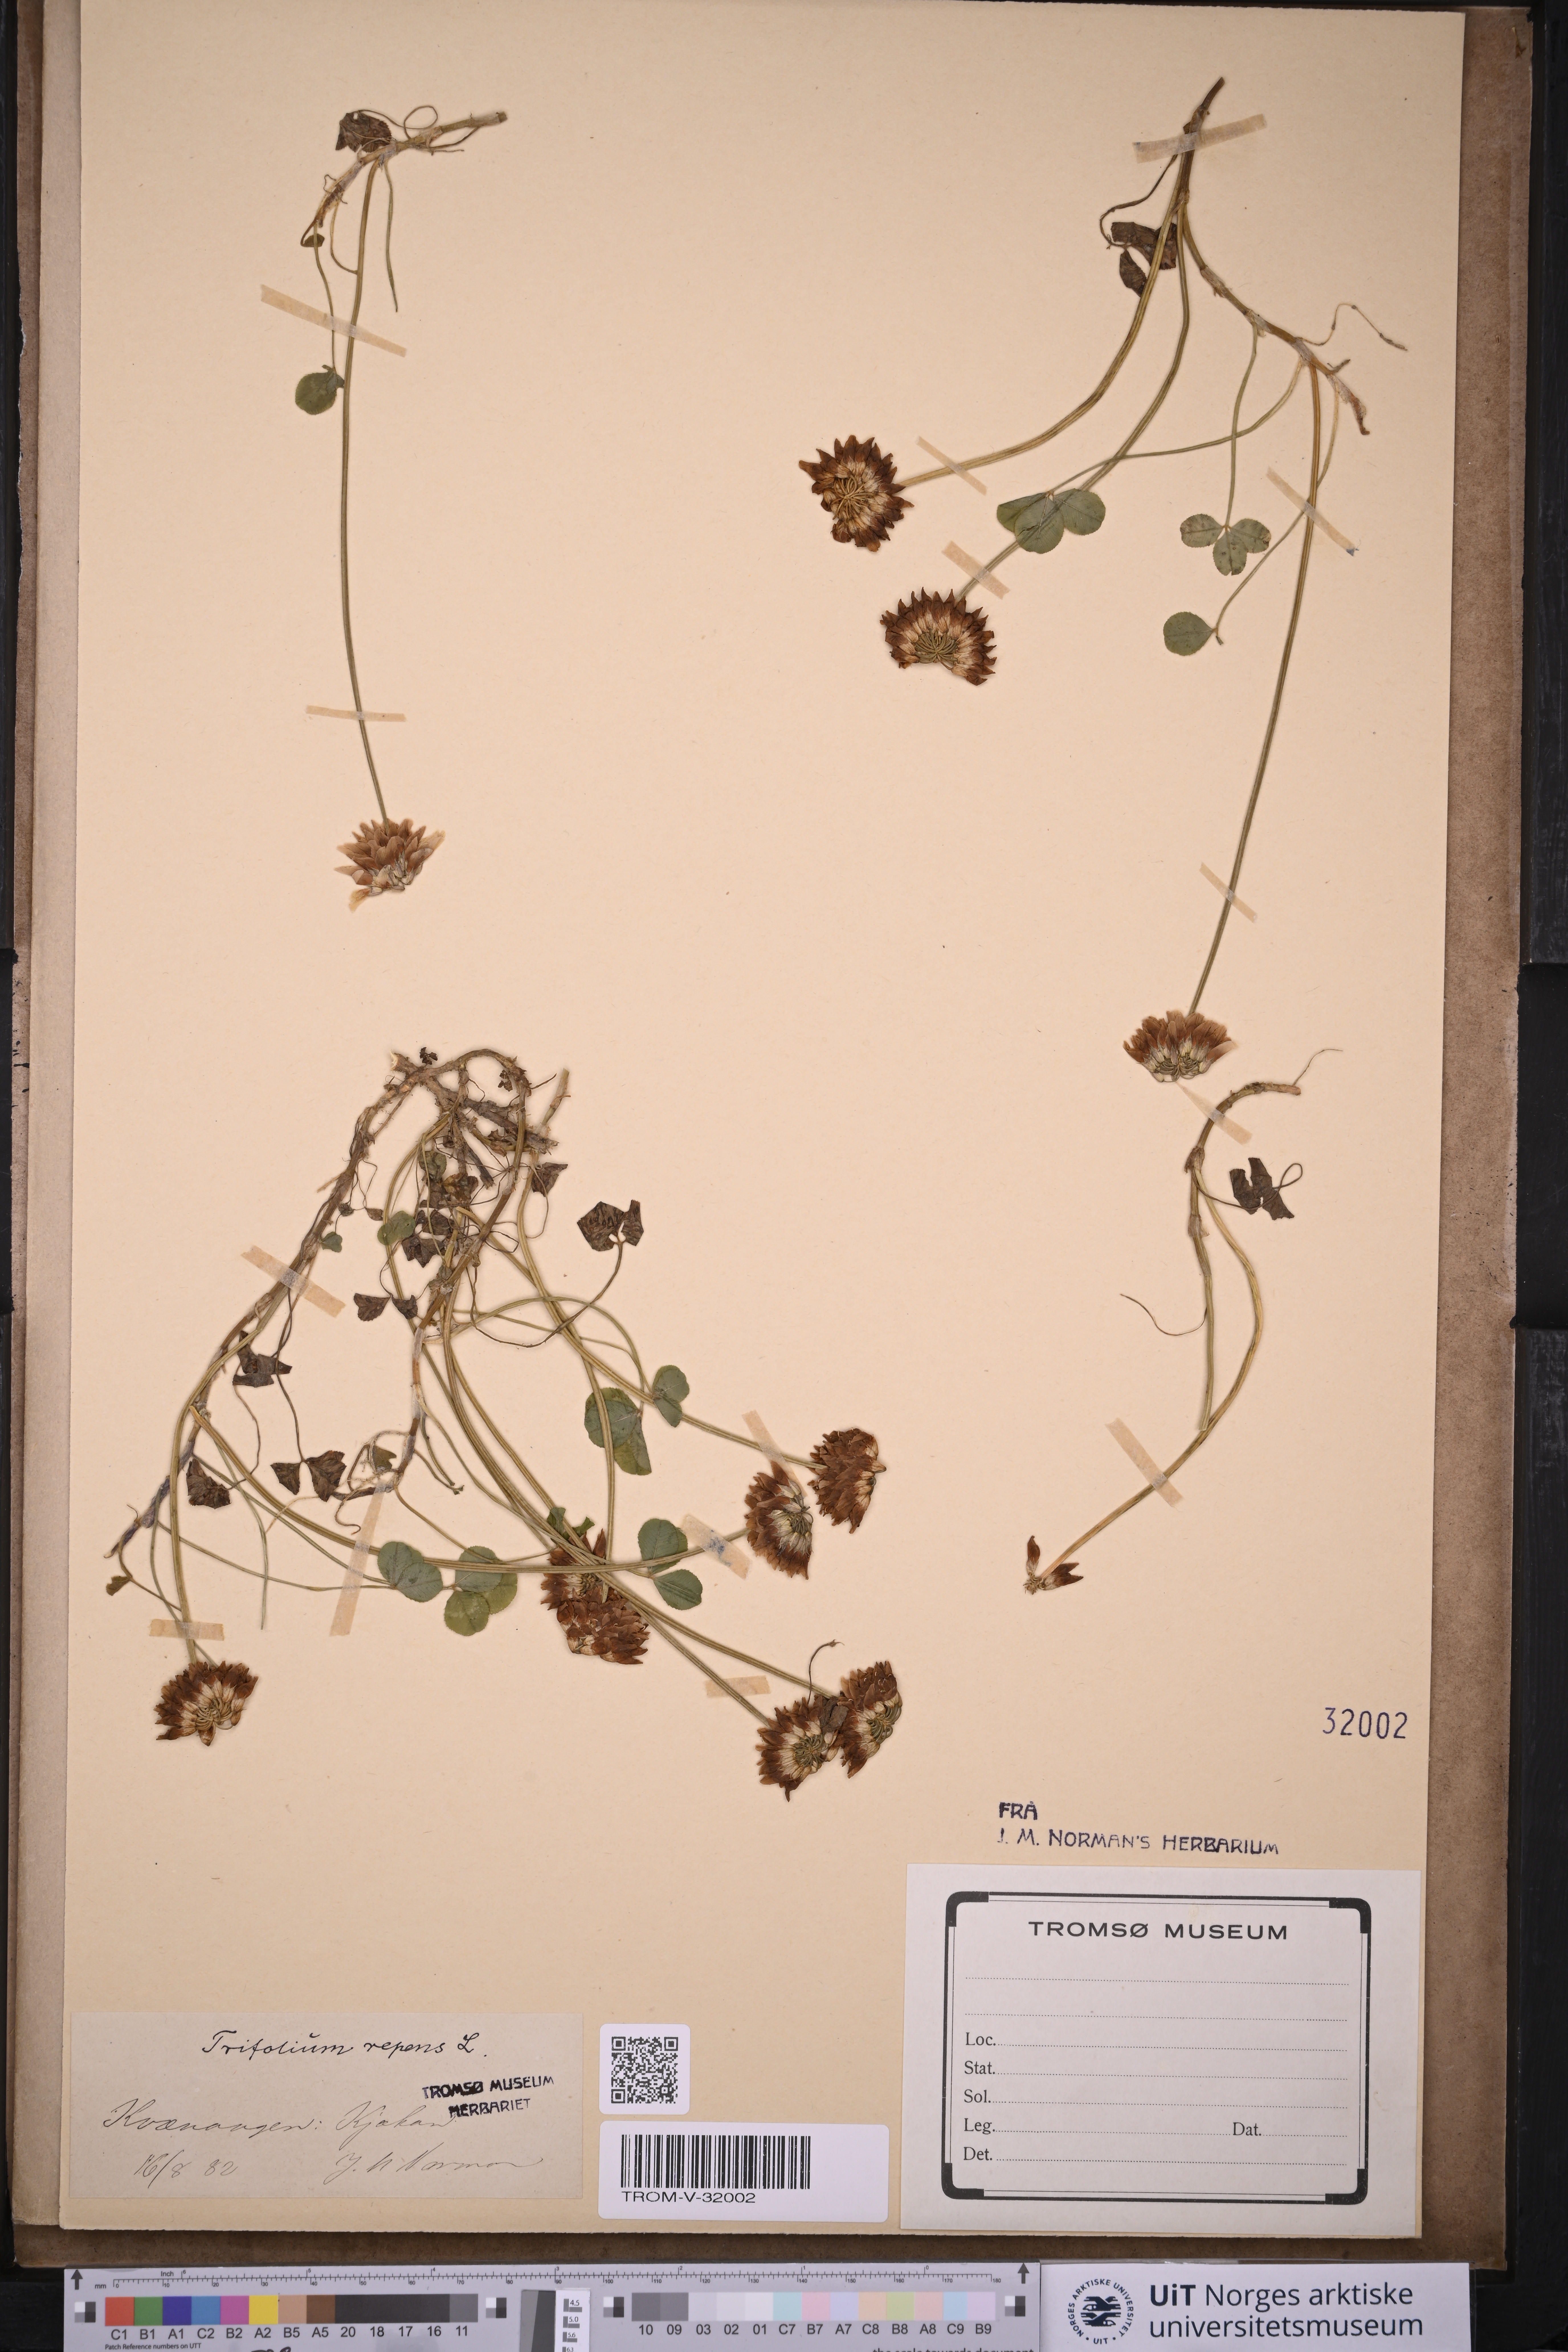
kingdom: Plantae
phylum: Tracheophyta
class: Magnoliopsida
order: Fabales
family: Fabaceae
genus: Trifolium
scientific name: Trifolium repens
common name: White clover
